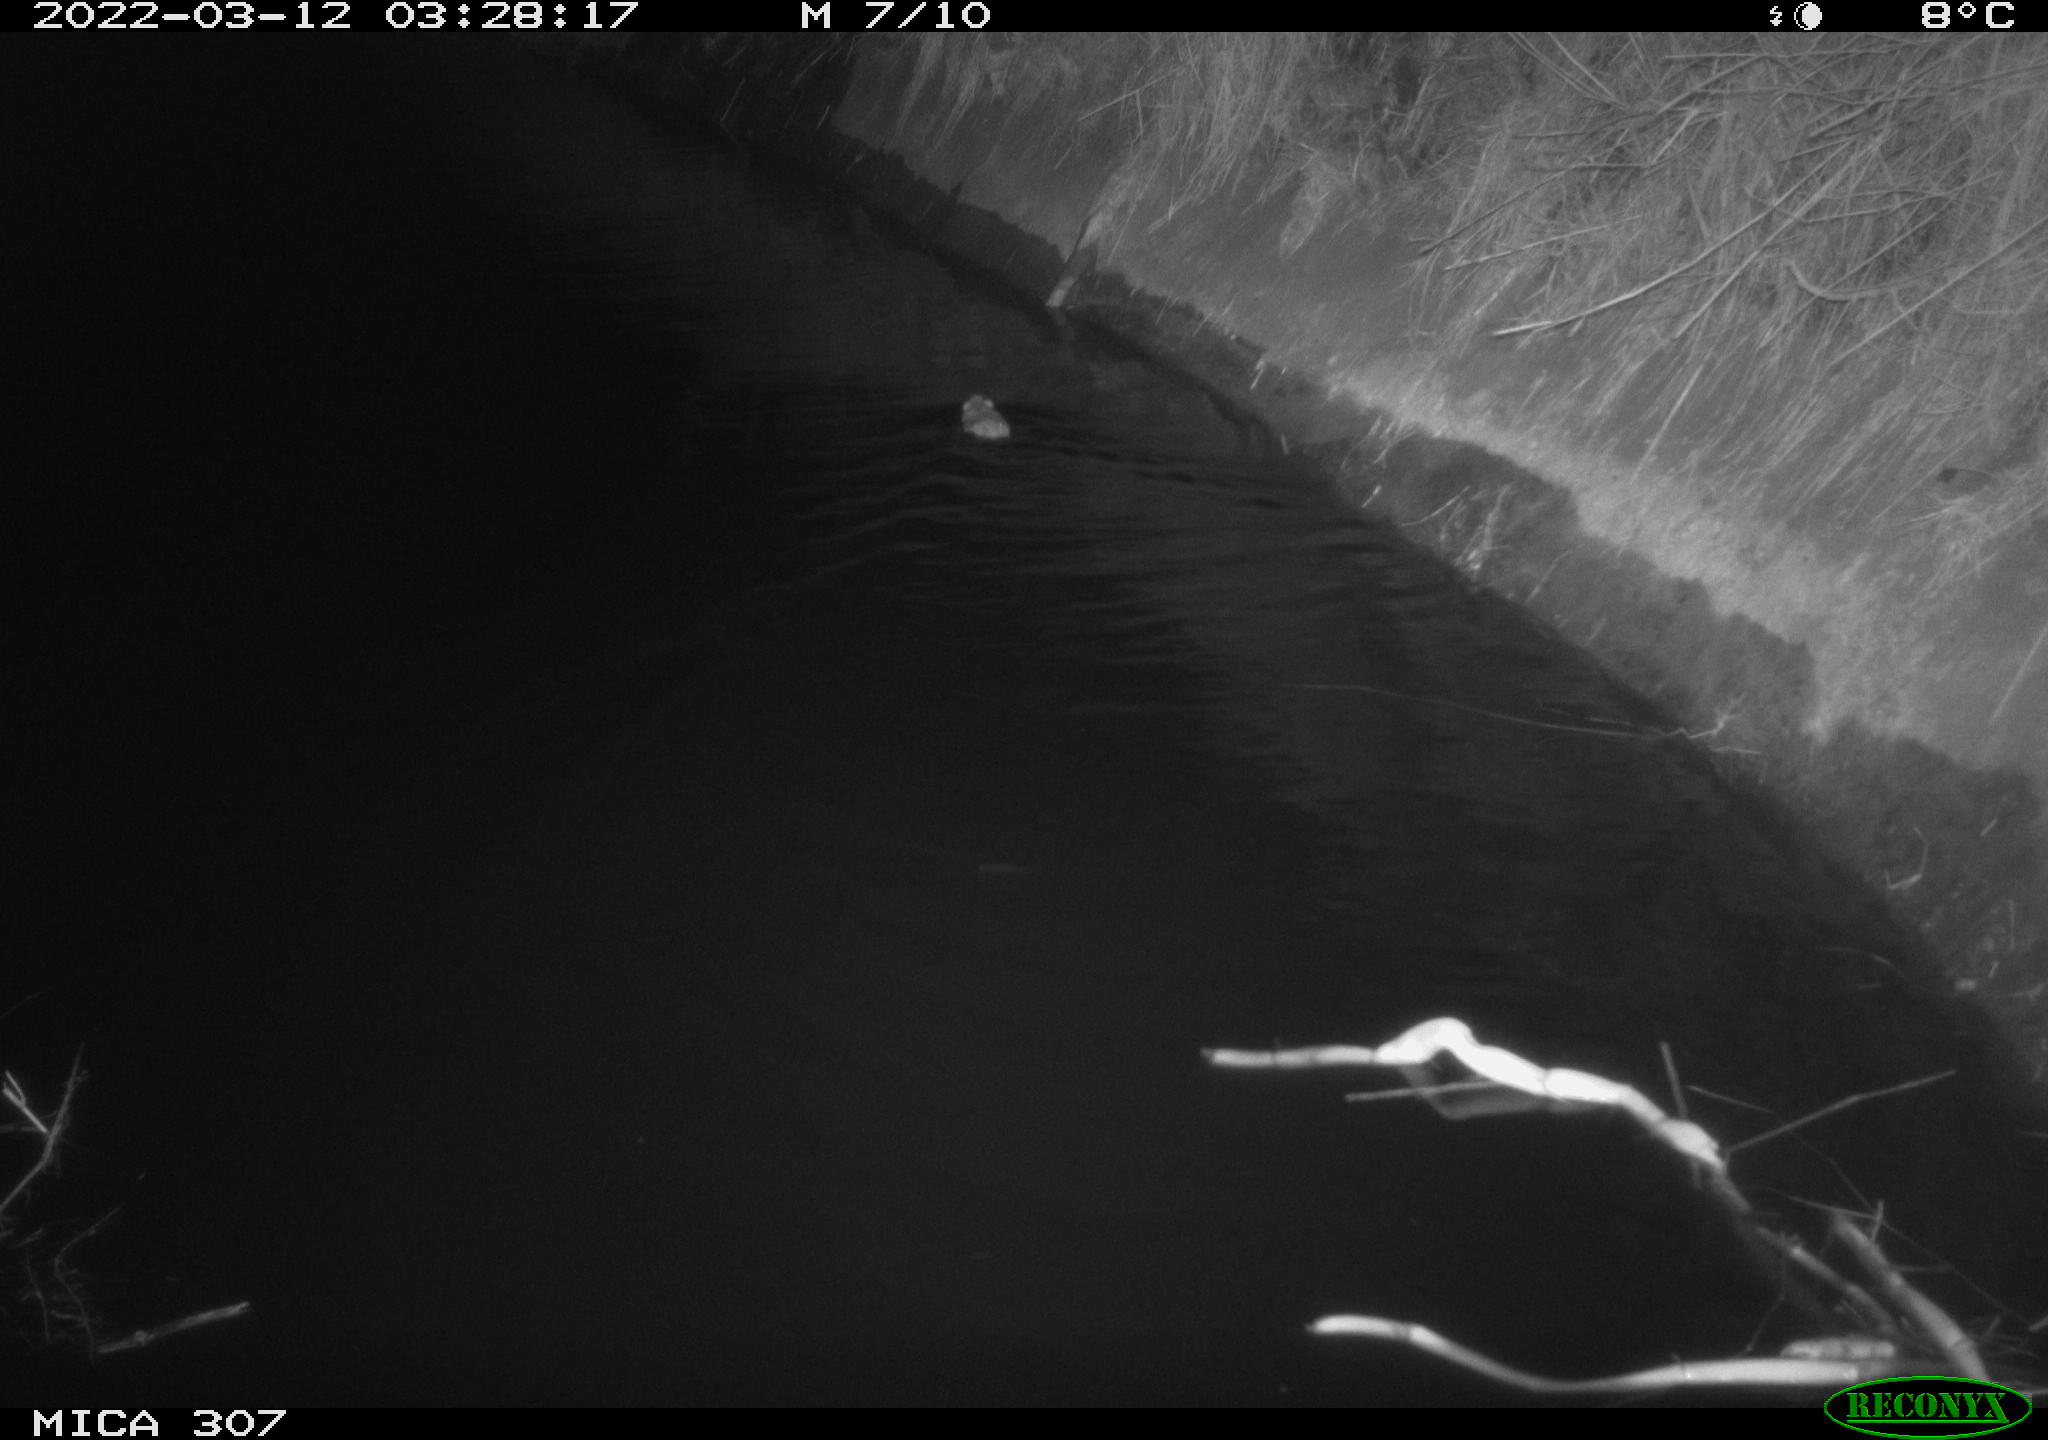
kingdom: Animalia
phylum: Chordata
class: Mammalia
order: Rodentia
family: Muridae
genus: Rattus
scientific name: Rattus norvegicus
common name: Brown rat
